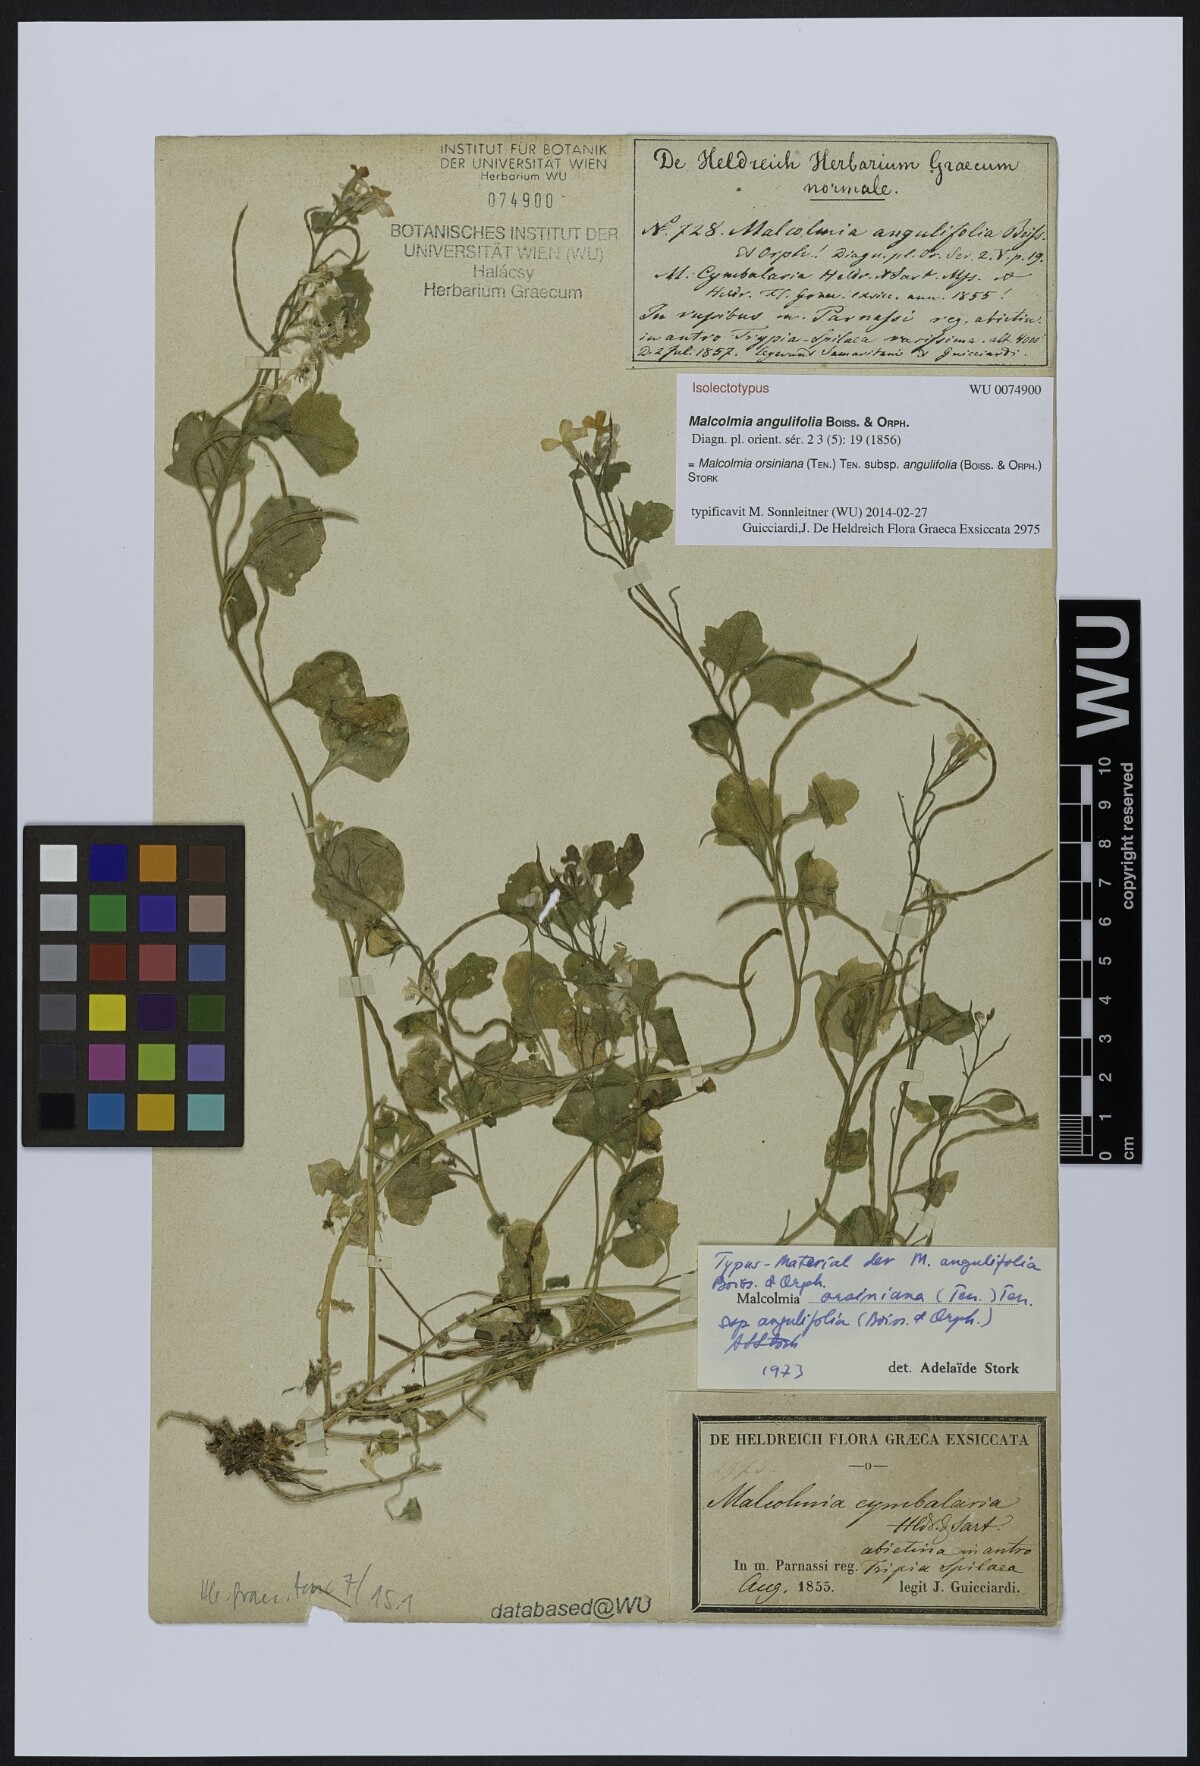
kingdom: Plantae
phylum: Tracheophyta
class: Magnoliopsida
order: Brassicales
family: Brassicaceae
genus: Malcolmia
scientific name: Malcolmia orsiniana
